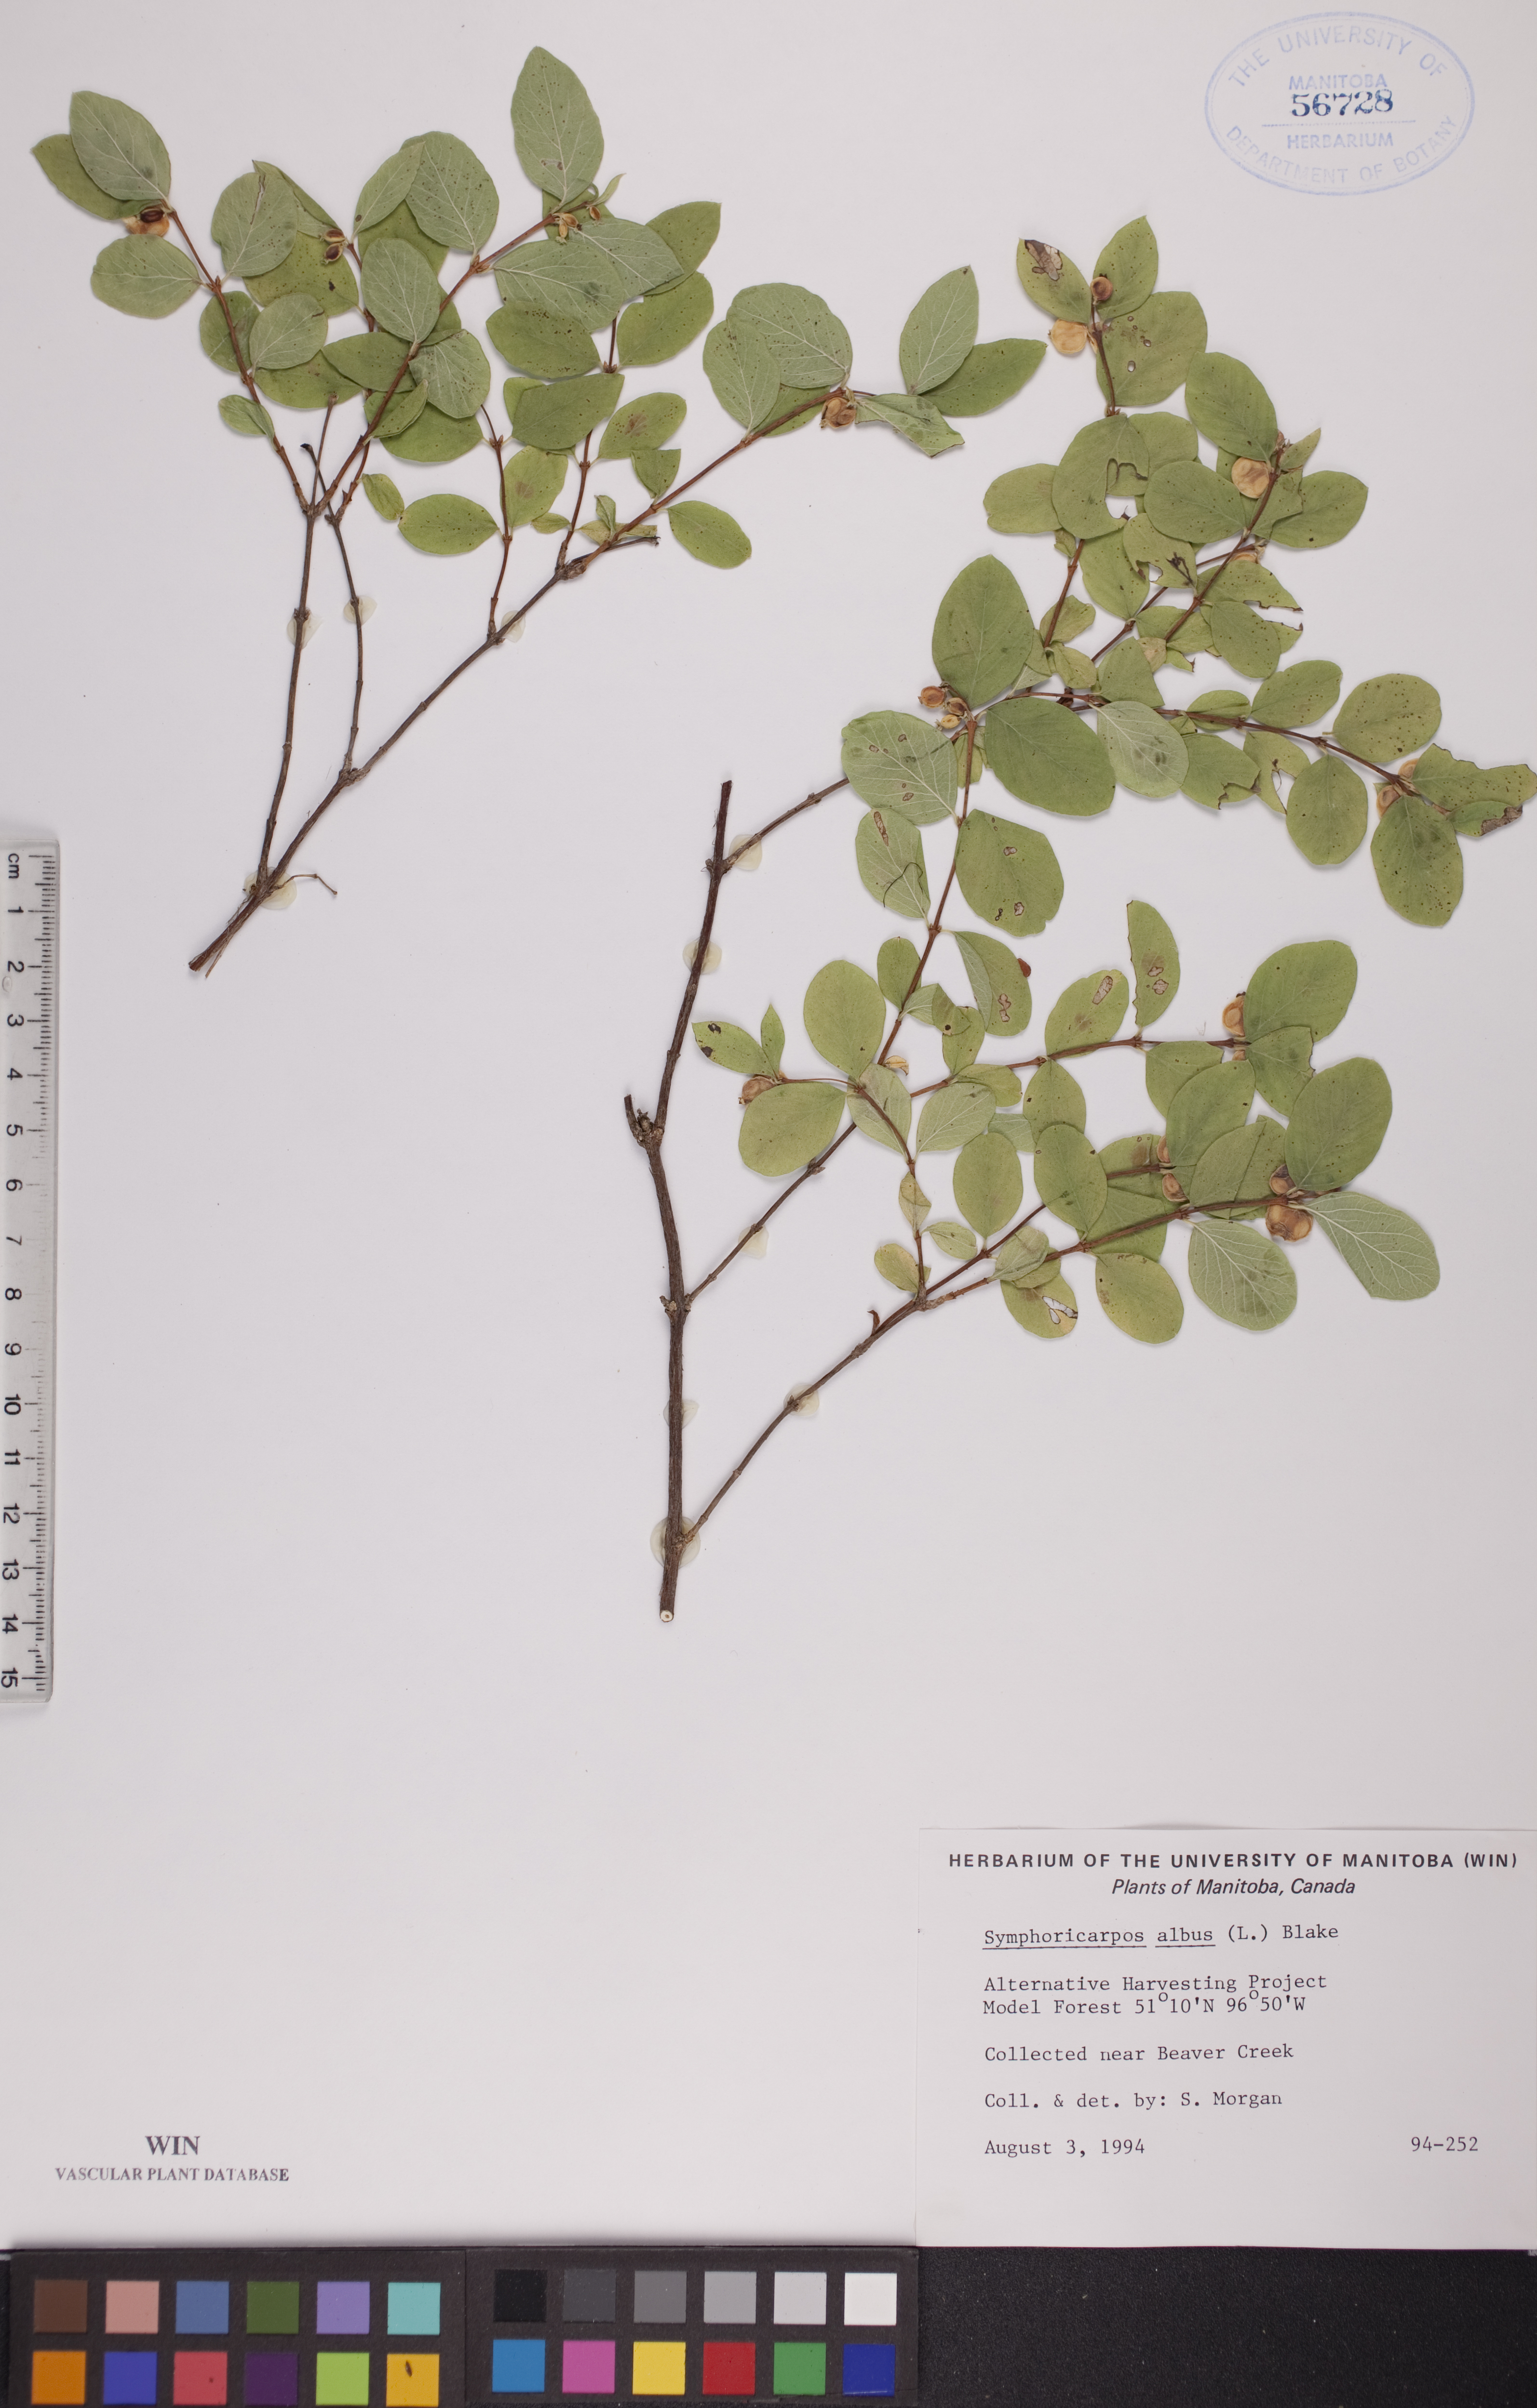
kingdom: Plantae
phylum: Tracheophyta
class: Magnoliopsida
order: Dipsacales
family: Caprifoliaceae
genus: Symphoricarpos
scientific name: Symphoricarpos albus
